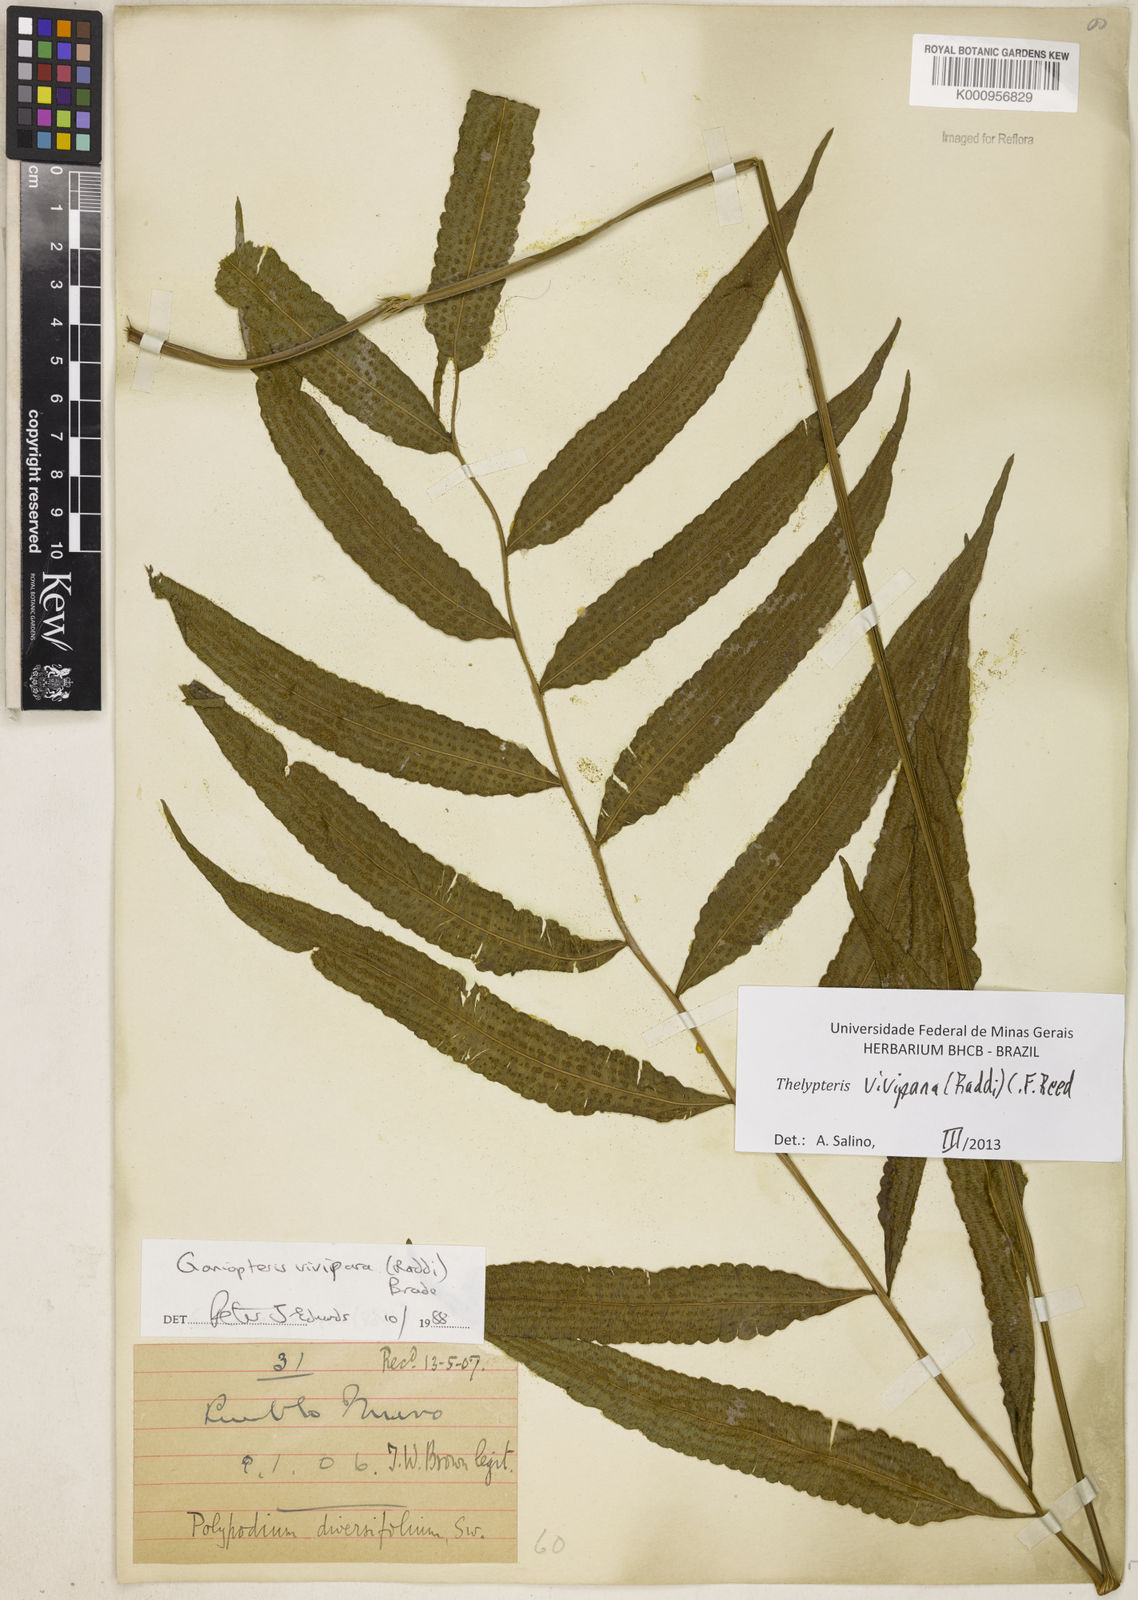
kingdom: Plantae
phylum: Tracheophyta
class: Polypodiopsida
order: Polypodiales
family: Thelypteridaceae
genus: Goniopteris
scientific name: Goniopteris vivipara
